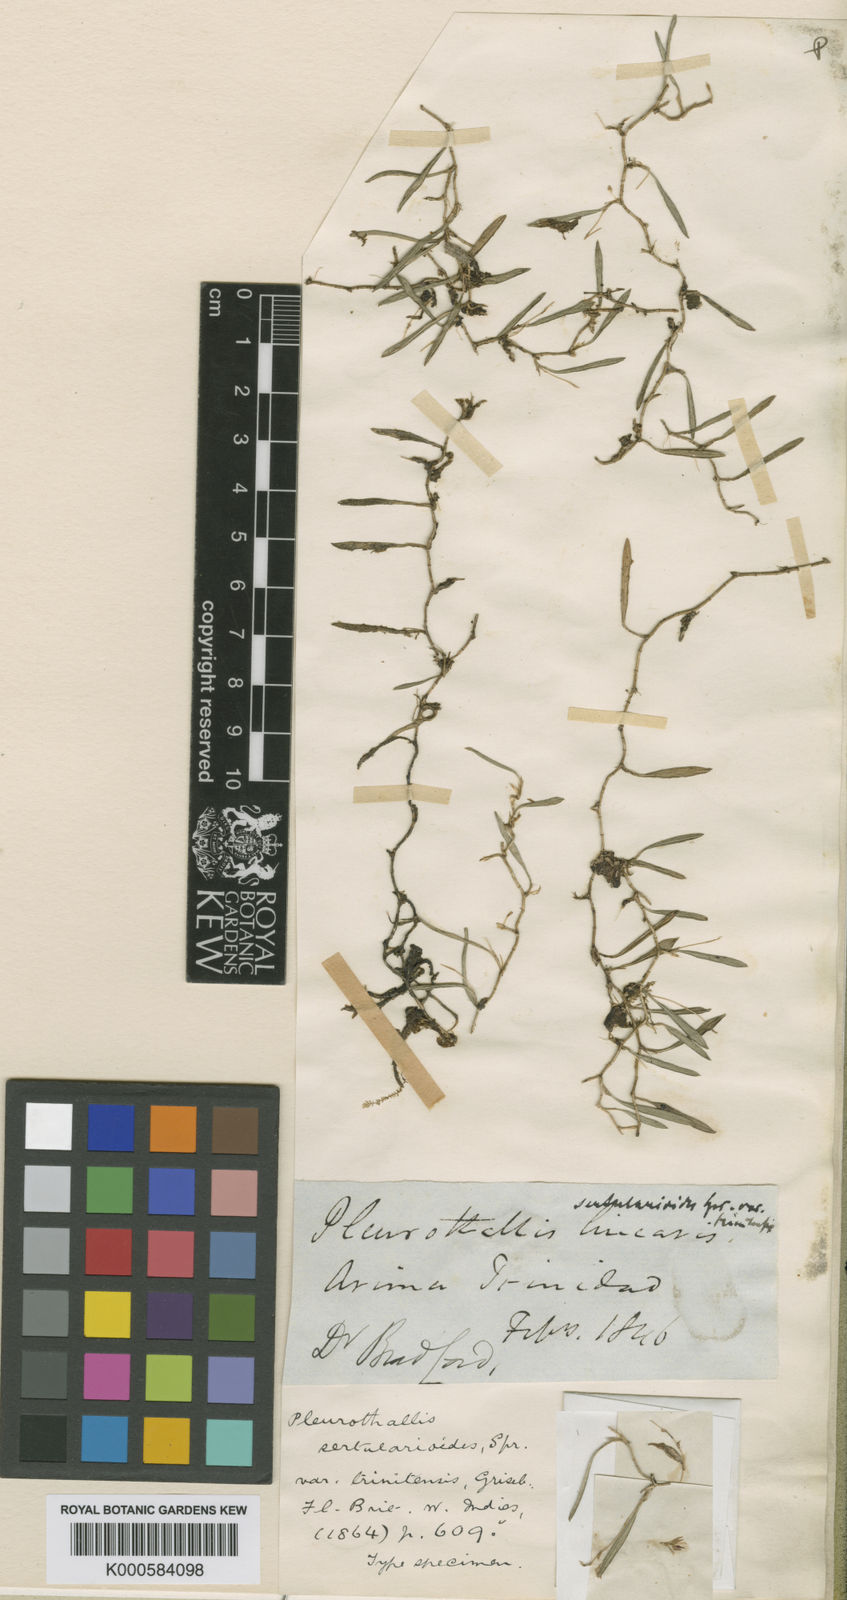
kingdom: Plantae
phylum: Tracheophyta
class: Liliopsida
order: Asparagales
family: Orchidaceae
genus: Madisonia
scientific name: Madisonia spiculifera
